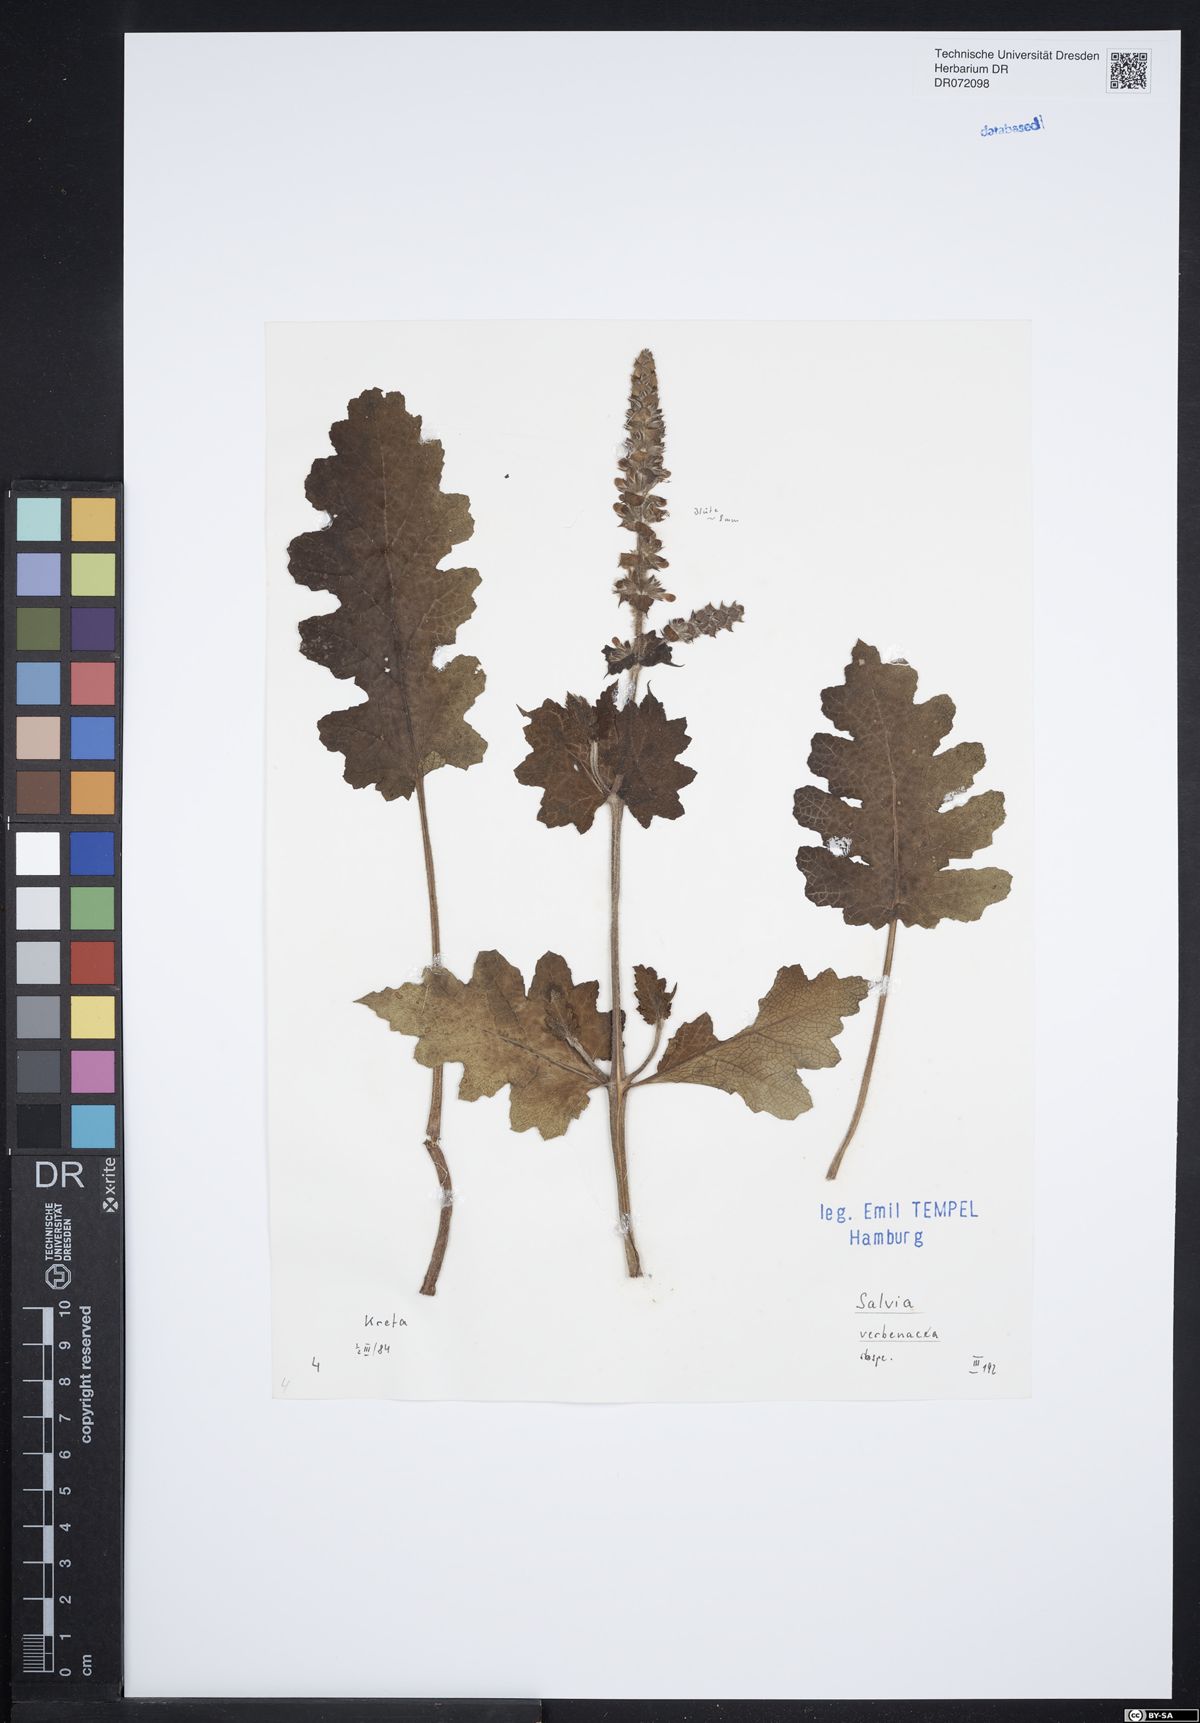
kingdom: Plantae
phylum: Tracheophyta
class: Magnoliopsida
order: Lamiales
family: Lamiaceae
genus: Salvia
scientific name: Salvia verbenaca
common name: Wild clary
